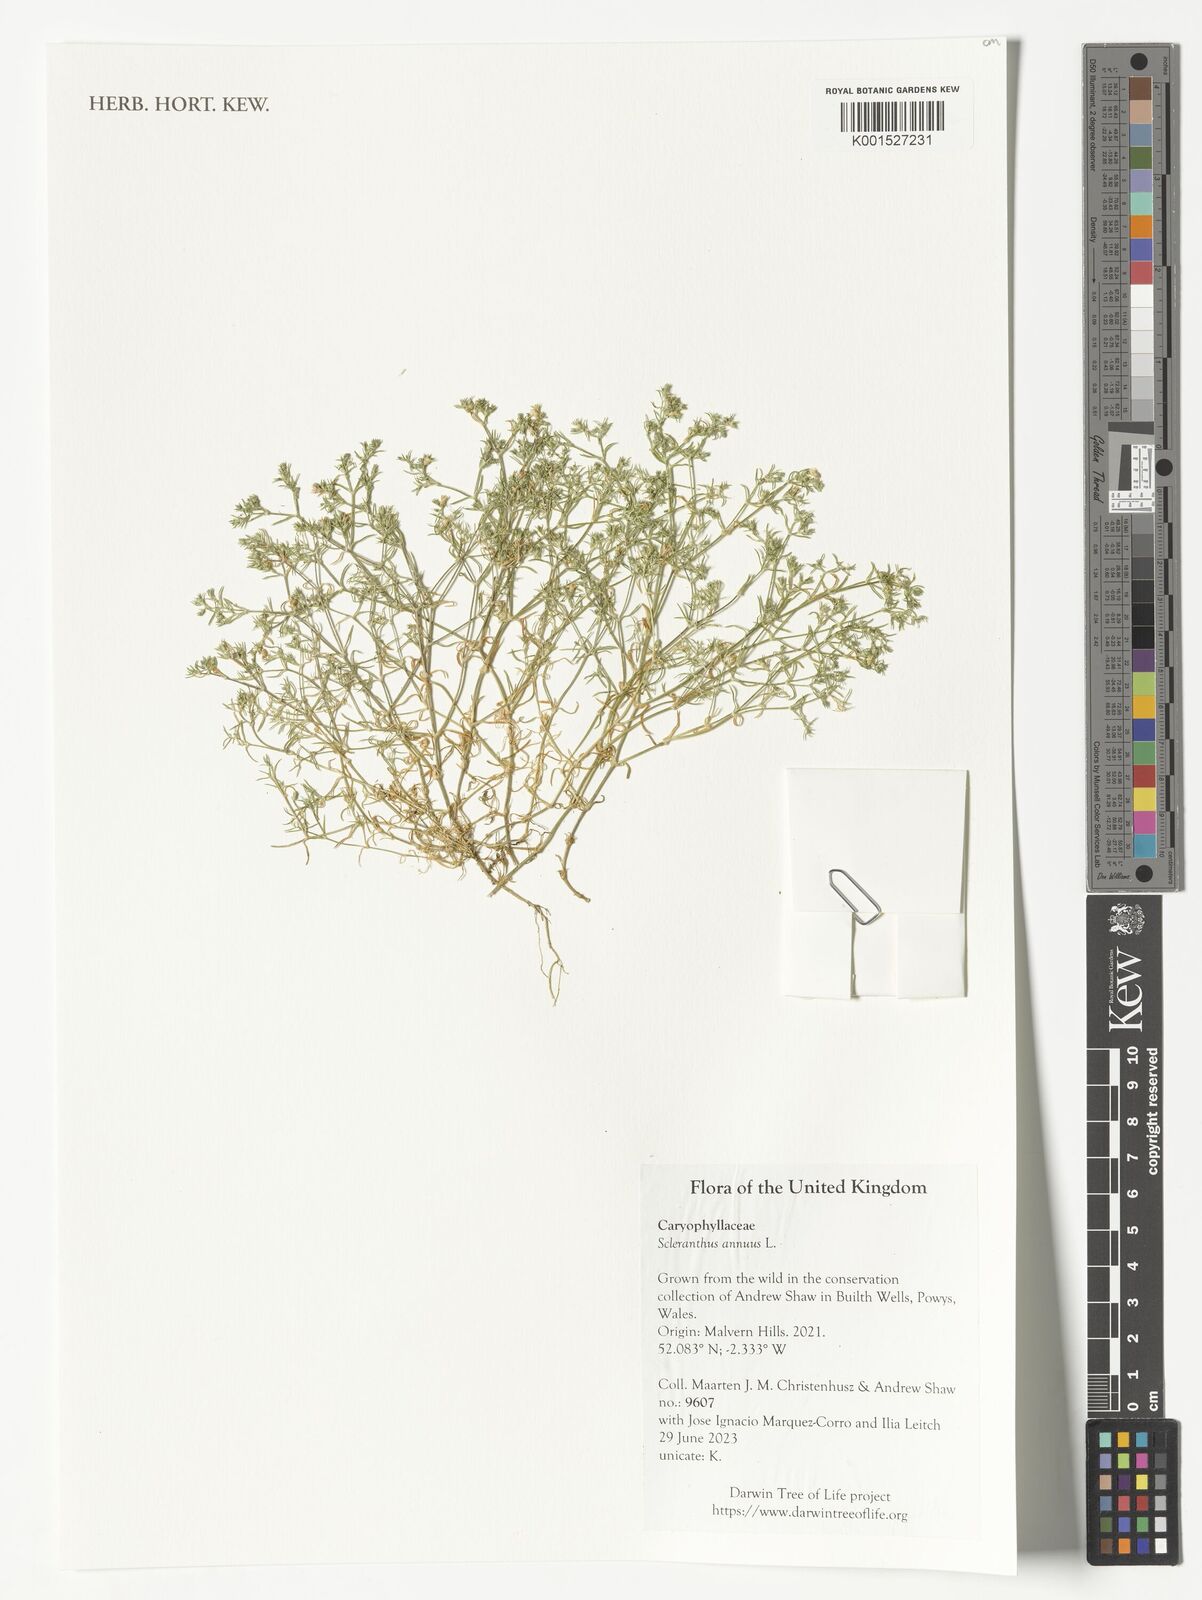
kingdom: Plantae
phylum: Tracheophyta
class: Magnoliopsida
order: Caryophyllales
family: Caryophyllaceae
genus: Scleranthus
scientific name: Scleranthus annuus
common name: Annual knawel
